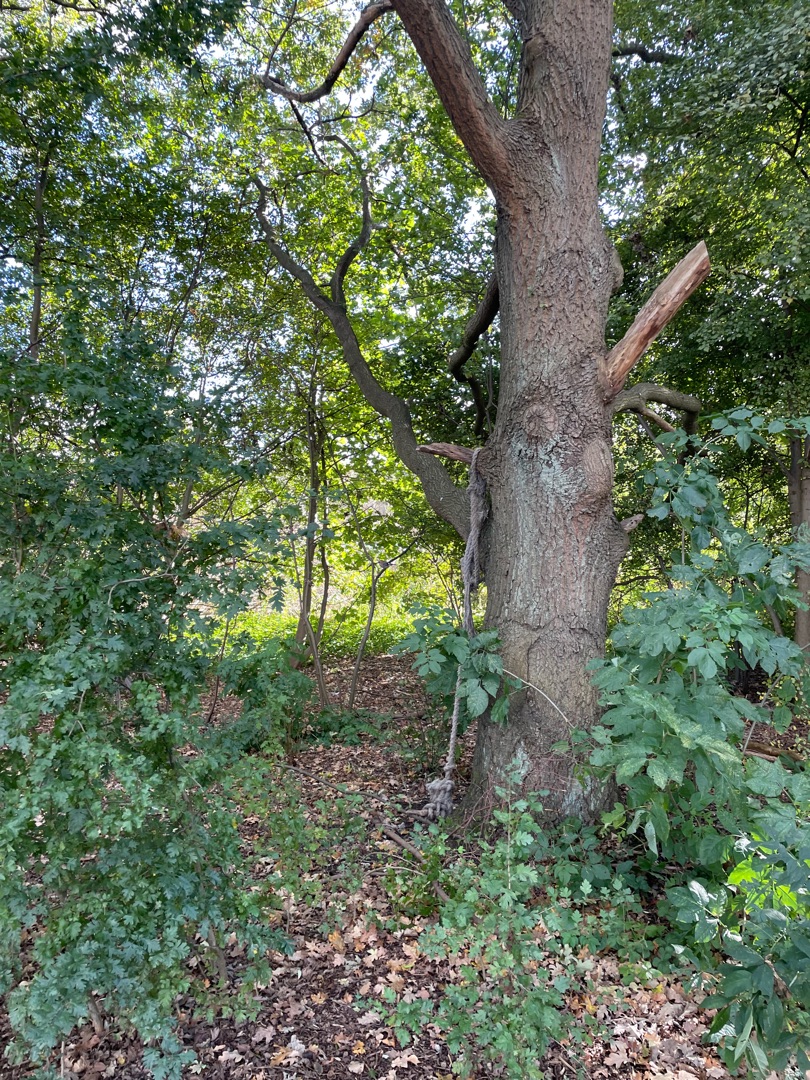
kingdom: Animalia
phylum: Chordata
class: Aves
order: Passeriformes
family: Corvidae
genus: Garrulus
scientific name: Garrulus glandarius
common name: Skovskade
